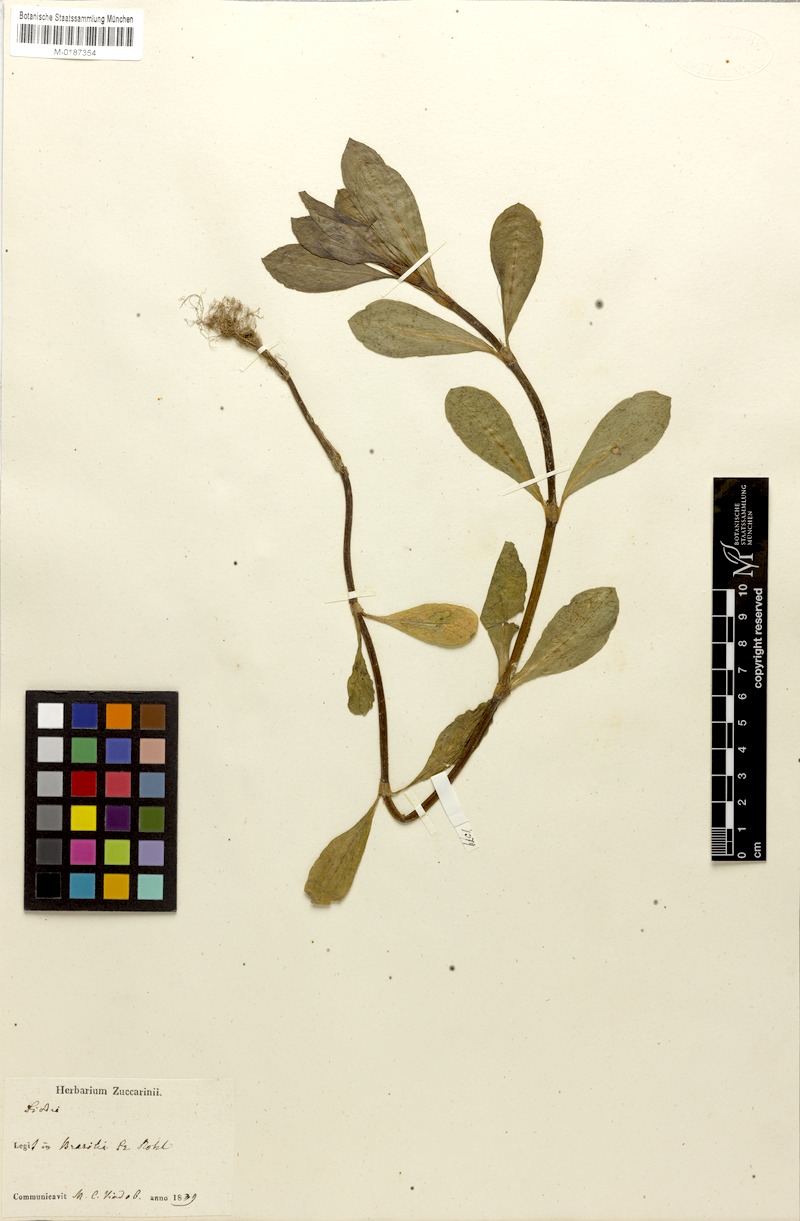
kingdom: Plantae
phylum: Tracheophyta
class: Magnoliopsida
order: Gentianales
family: Rubiaceae
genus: Diodia
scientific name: Diodia saponariifolia
